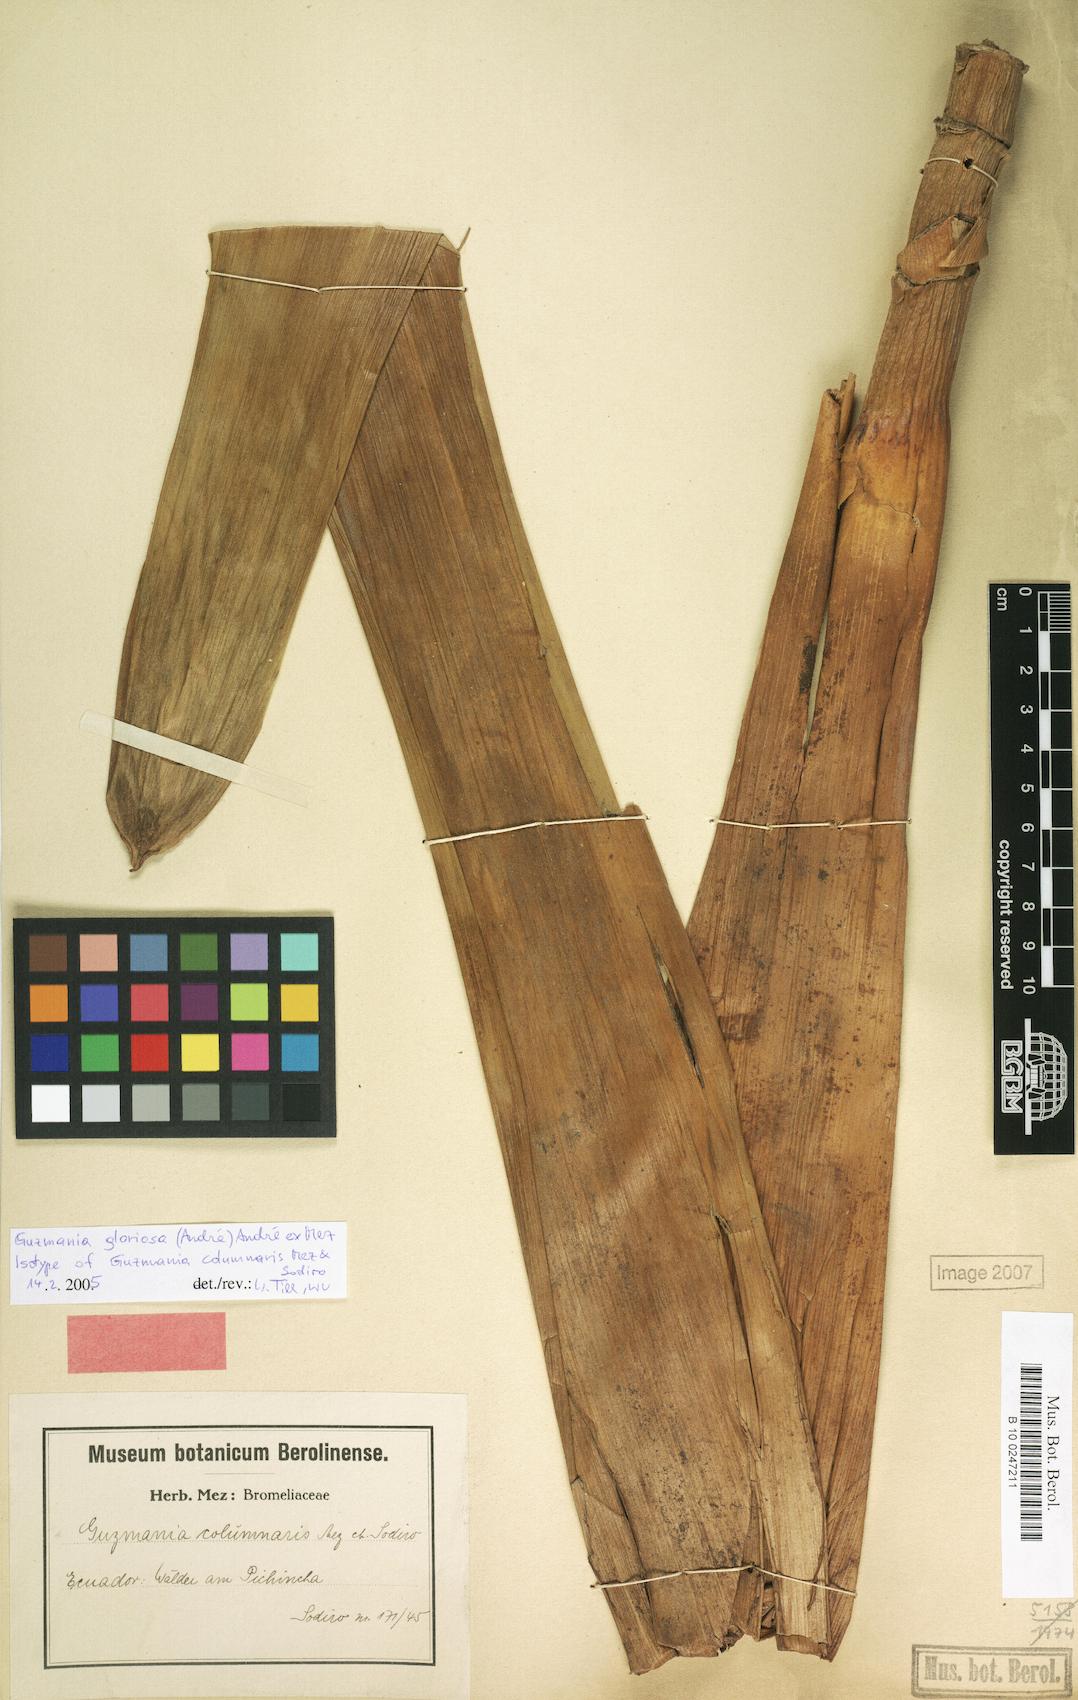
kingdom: Plantae
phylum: Tracheophyta
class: Liliopsida
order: Poales
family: Bromeliaceae
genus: Guzmania
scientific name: Guzmania gloriosa
